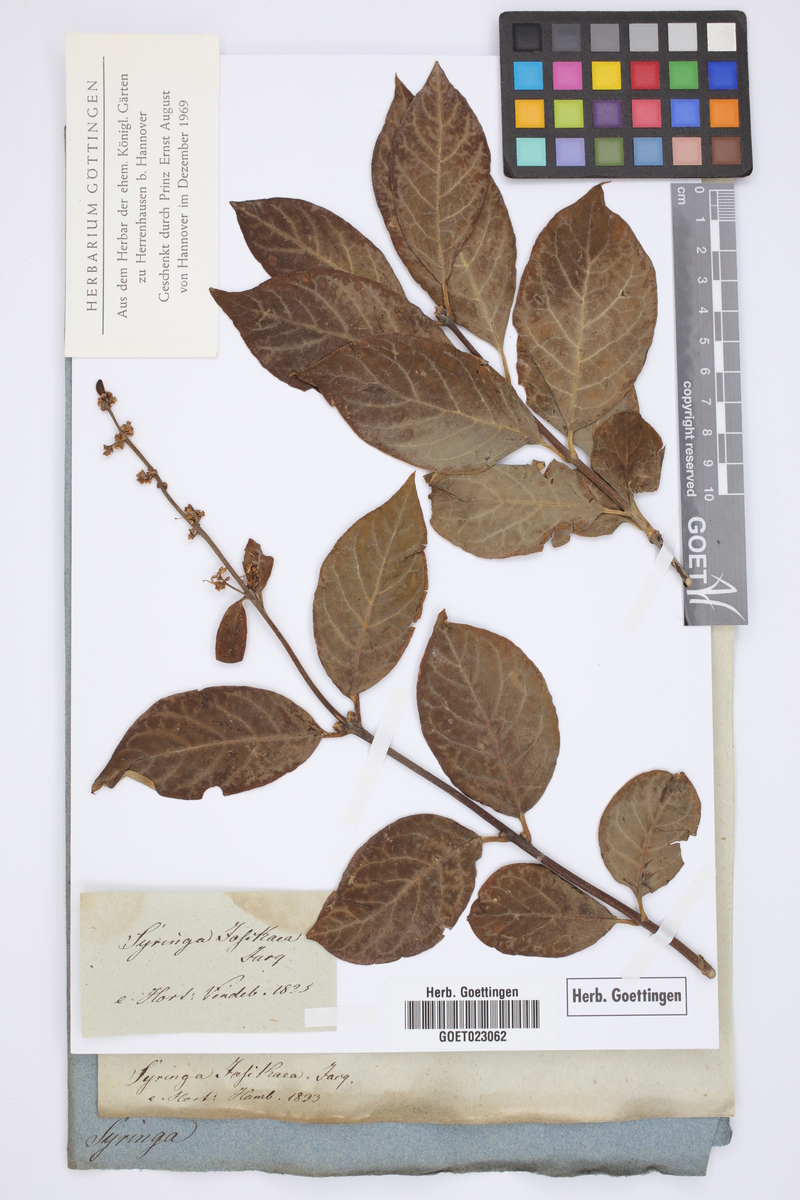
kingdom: Plantae
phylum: Tracheophyta
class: Magnoliopsida
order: Lamiales
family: Oleaceae
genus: Syringa
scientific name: Syringa josikaea
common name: Hungarian lilac
